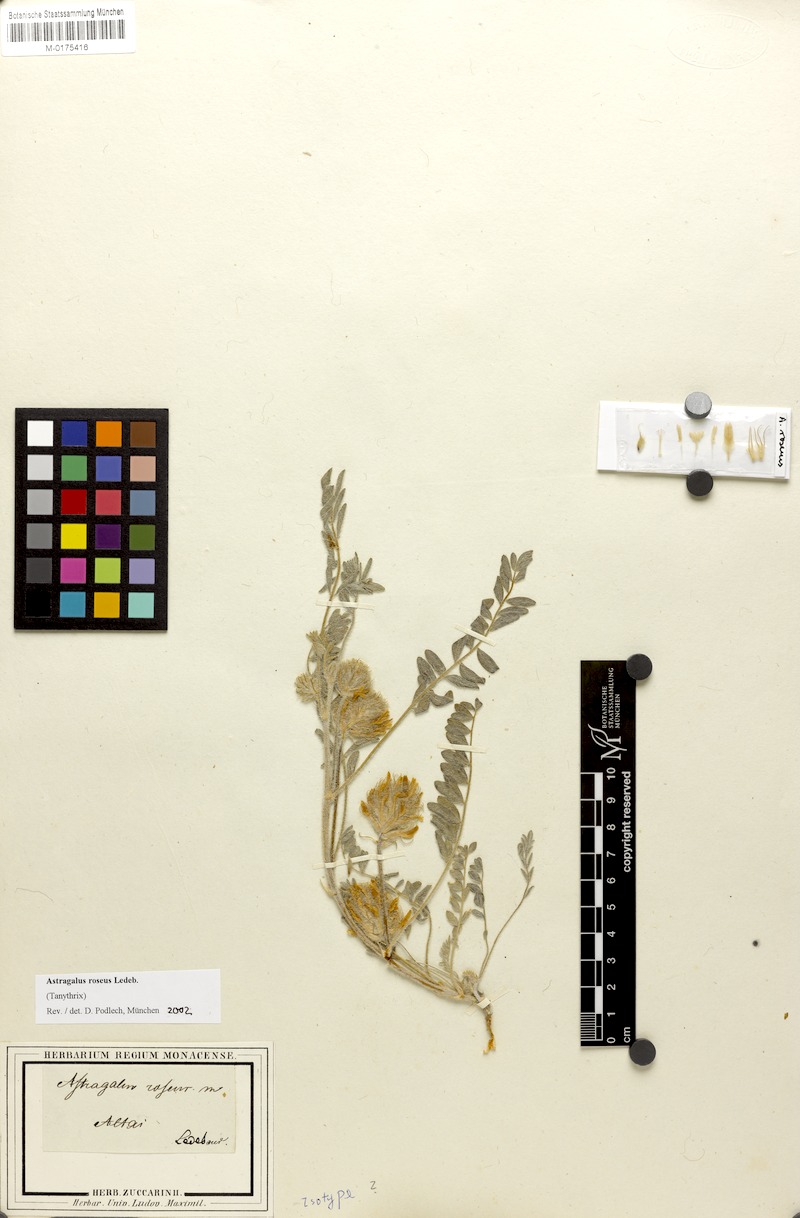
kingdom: Plantae
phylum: Tracheophyta
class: Magnoliopsida
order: Fabales
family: Fabaceae
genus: Astragalus
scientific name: Astragalus roseus
